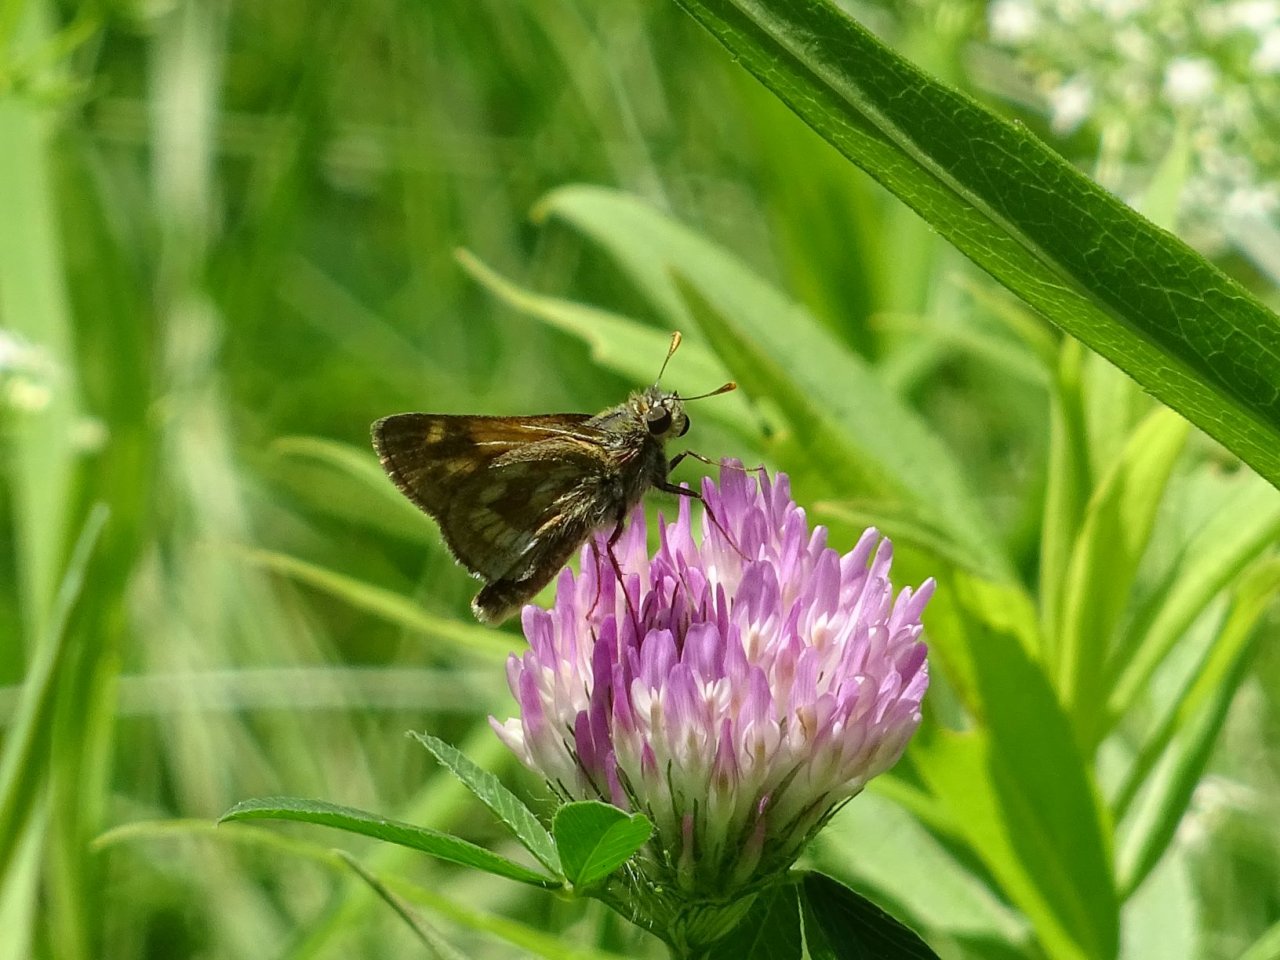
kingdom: Animalia
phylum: Arthropoda
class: Insecta
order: Lepidoptera
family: Hesperiidae
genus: Polites
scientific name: Polites
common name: Long Dash Skipper
